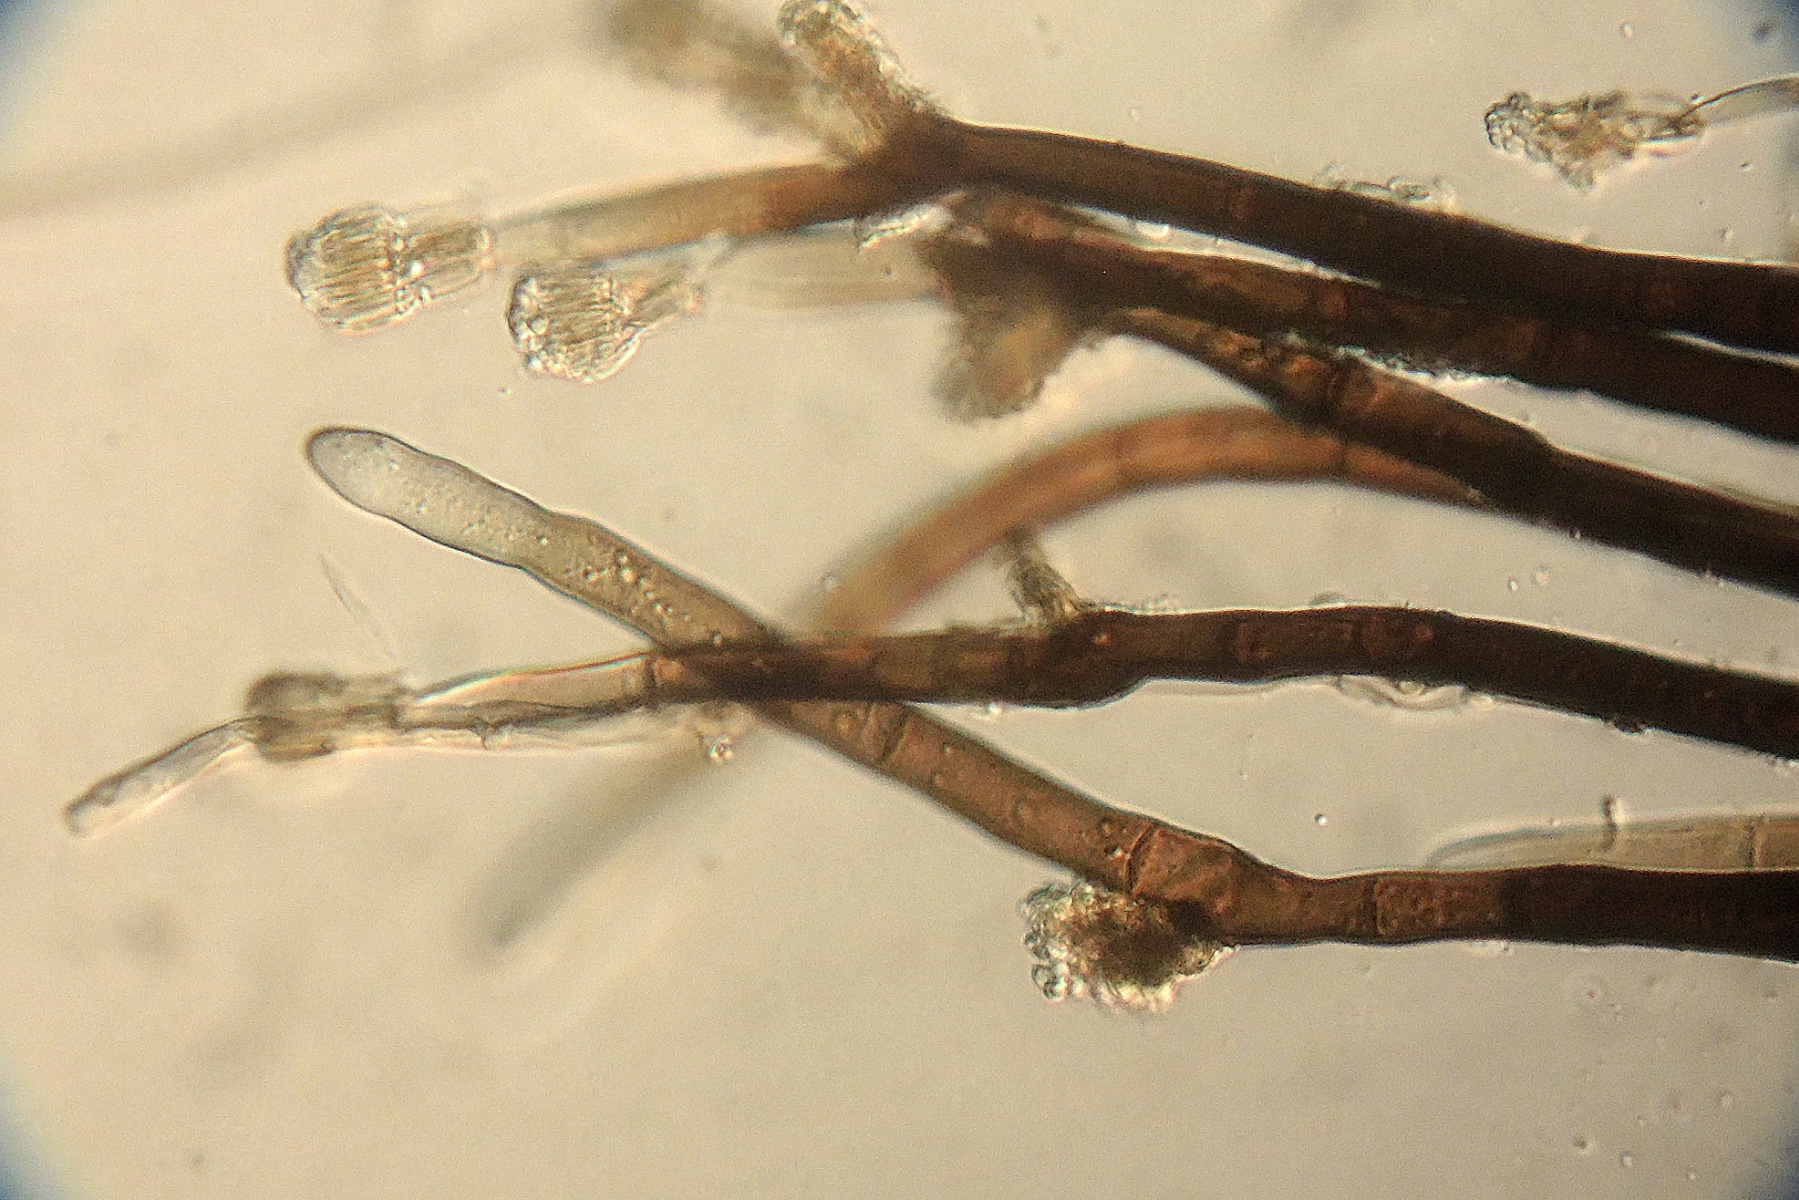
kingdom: Fungi
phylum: Ascomycota
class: Eurotiomycetes
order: Eurotiales
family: Aspergillaceae
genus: Penicillium
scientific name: Penicillium glaucoalbidum
